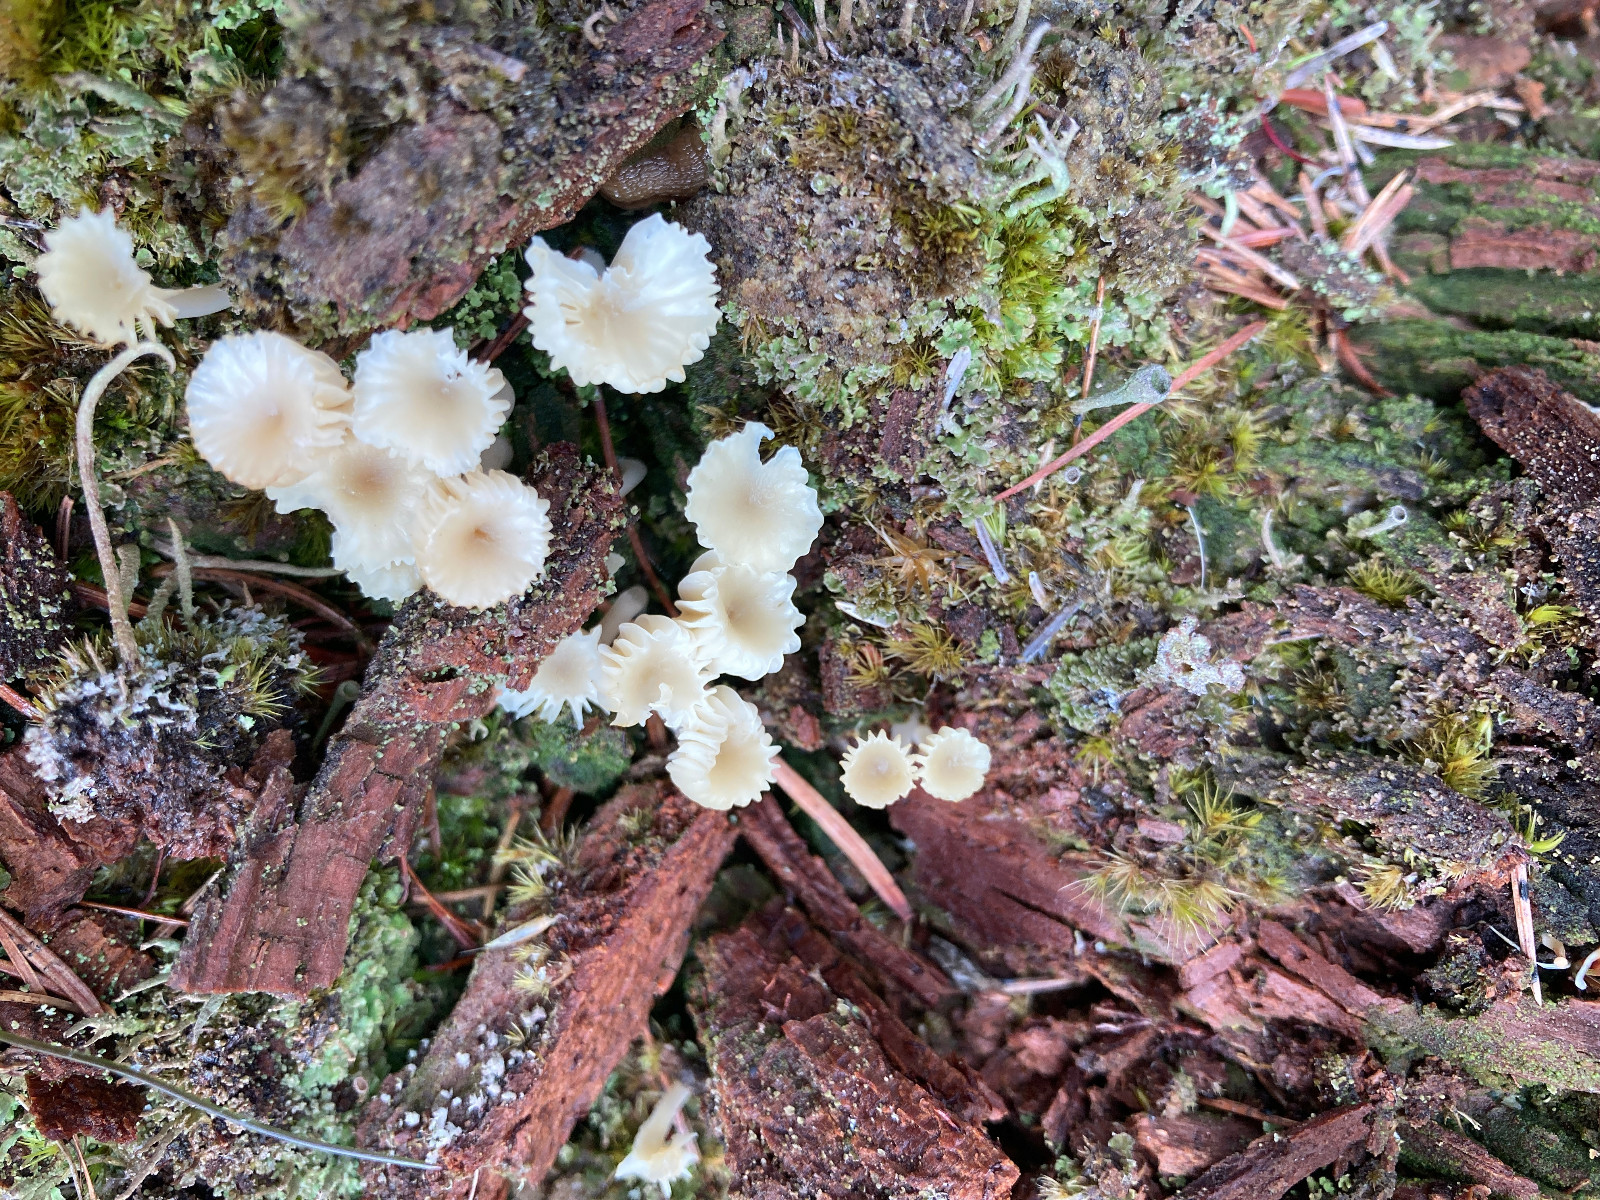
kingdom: Fungi
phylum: Basidiomycota
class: Agaricomycetes
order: Agaricales
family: Hygrophoraceae
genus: Lichenomphalia
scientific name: Lichenomphalia umbellifera
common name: tørve-lavhat
